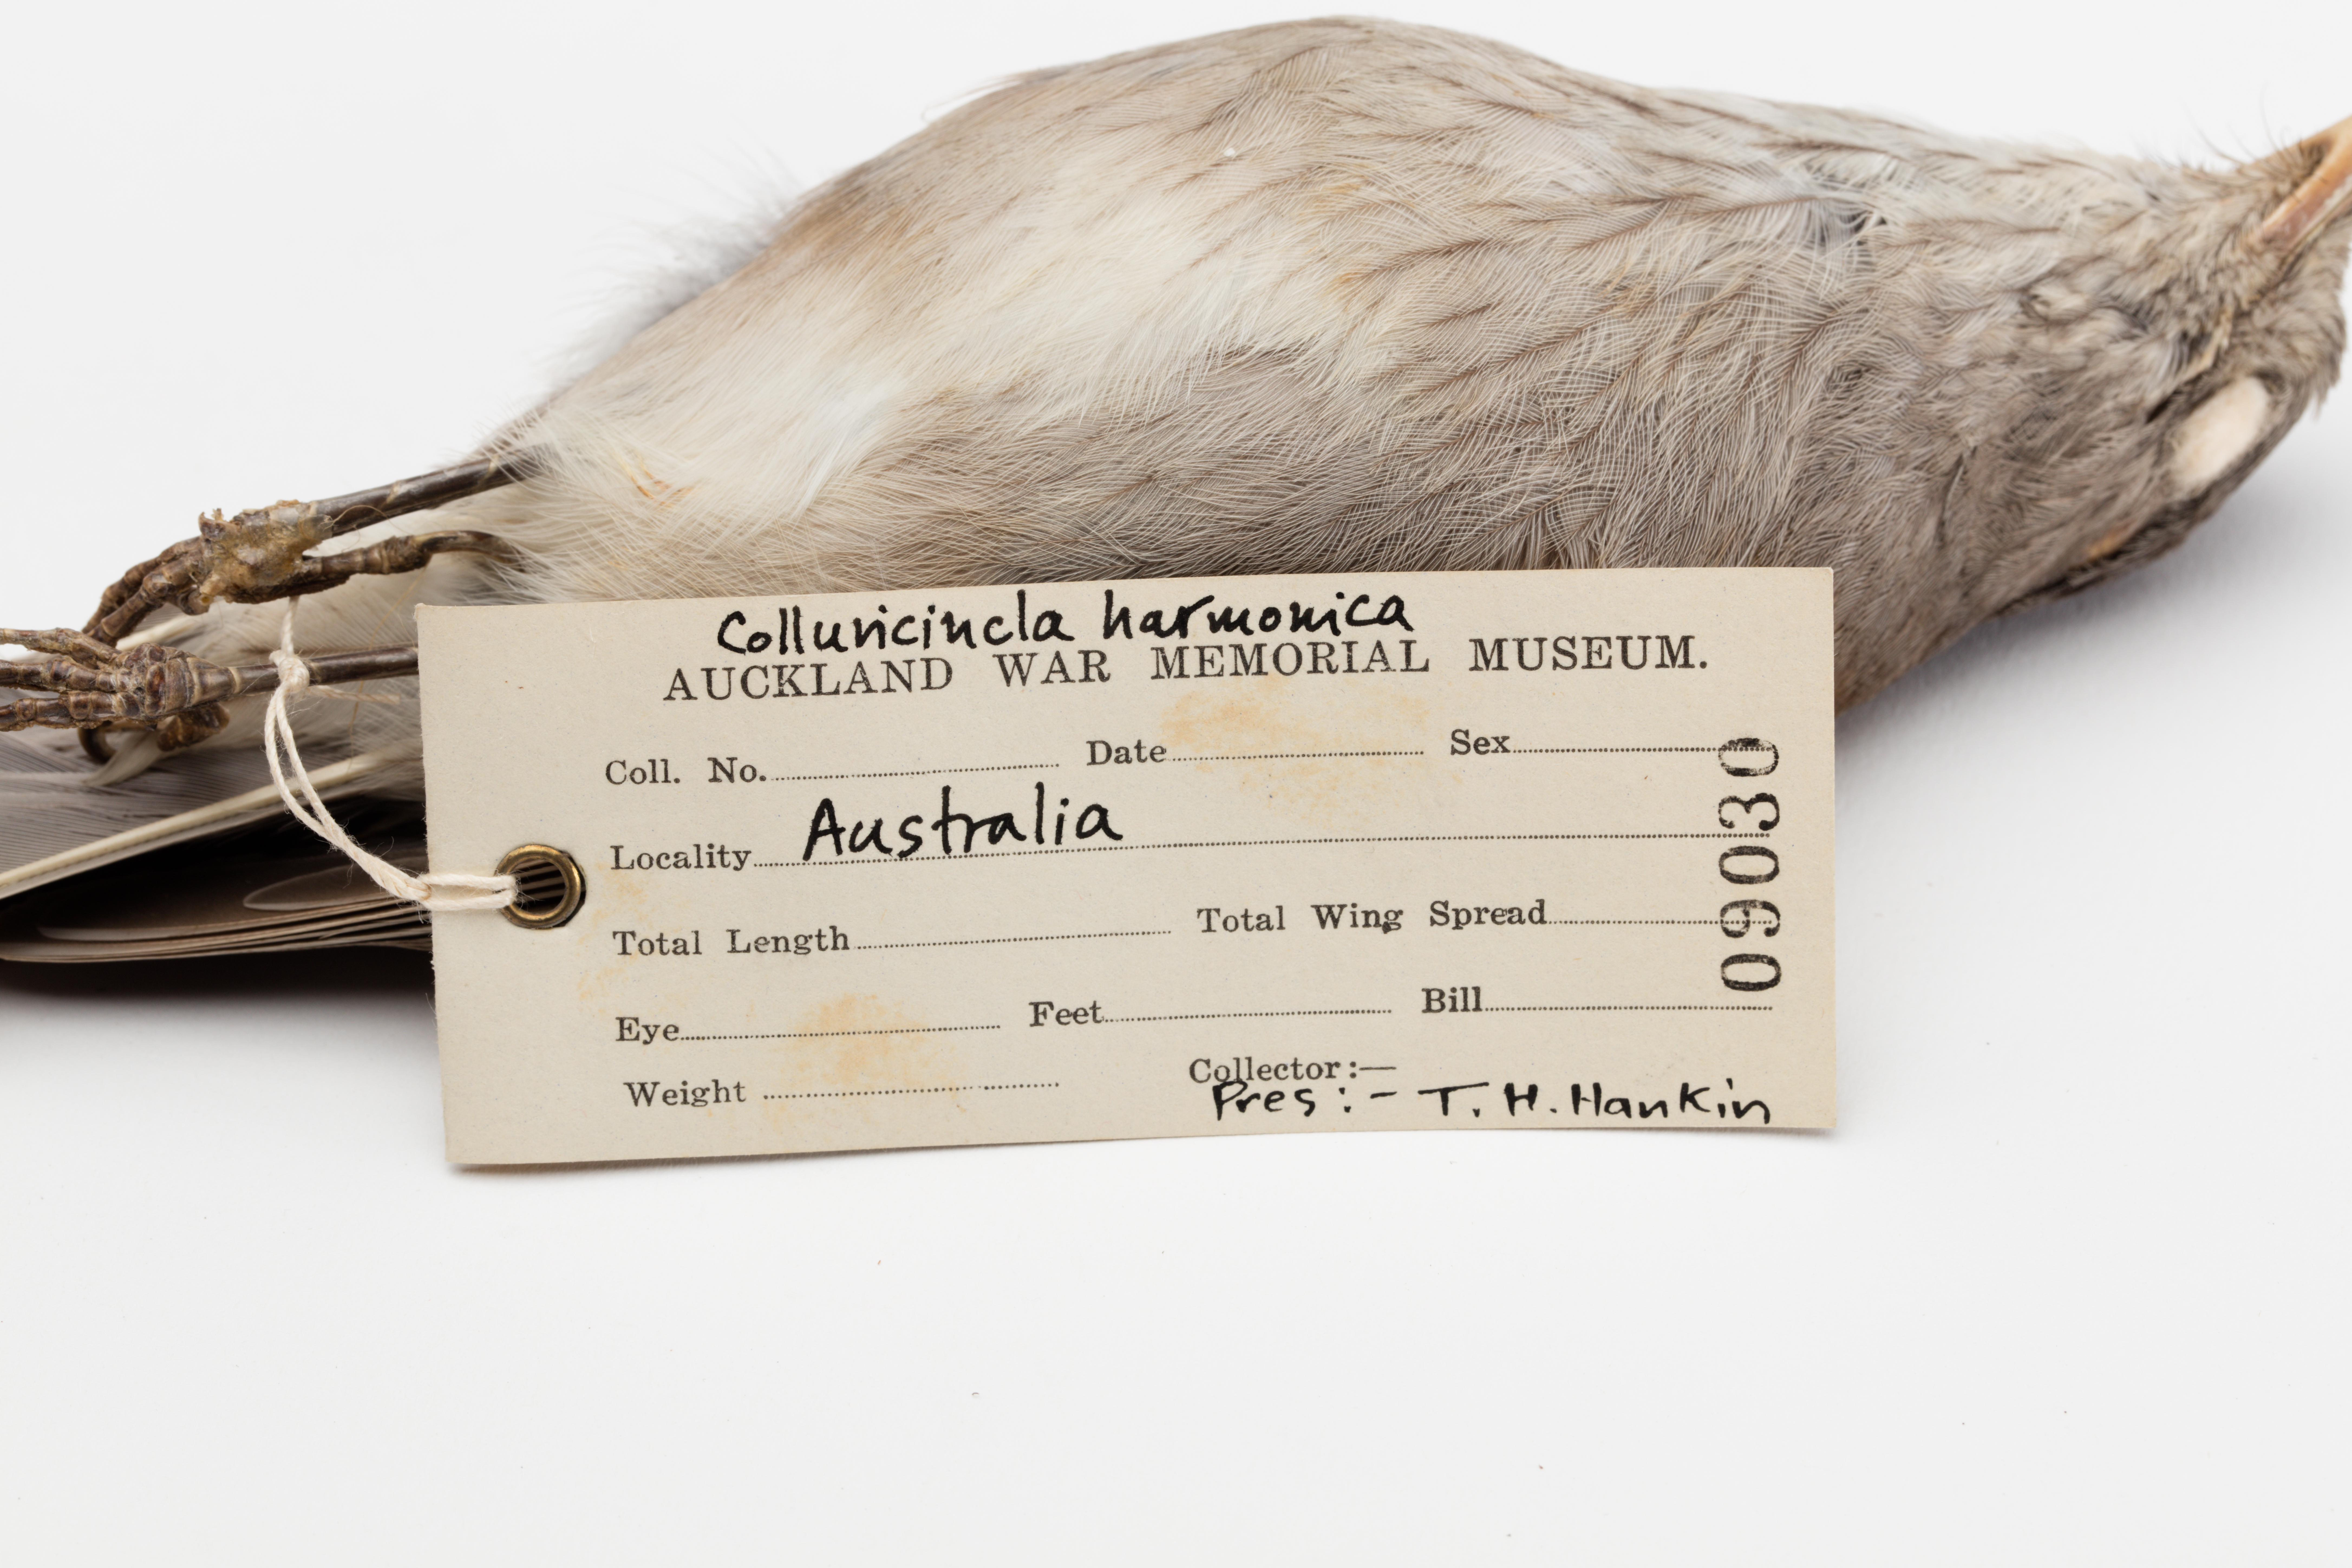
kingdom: Animalia
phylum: Chordata
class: Aves
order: Passeriformes
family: Pachycephalidae
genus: Colluricincla
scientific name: Colluricincla harmonica
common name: Grey shrikethrush
